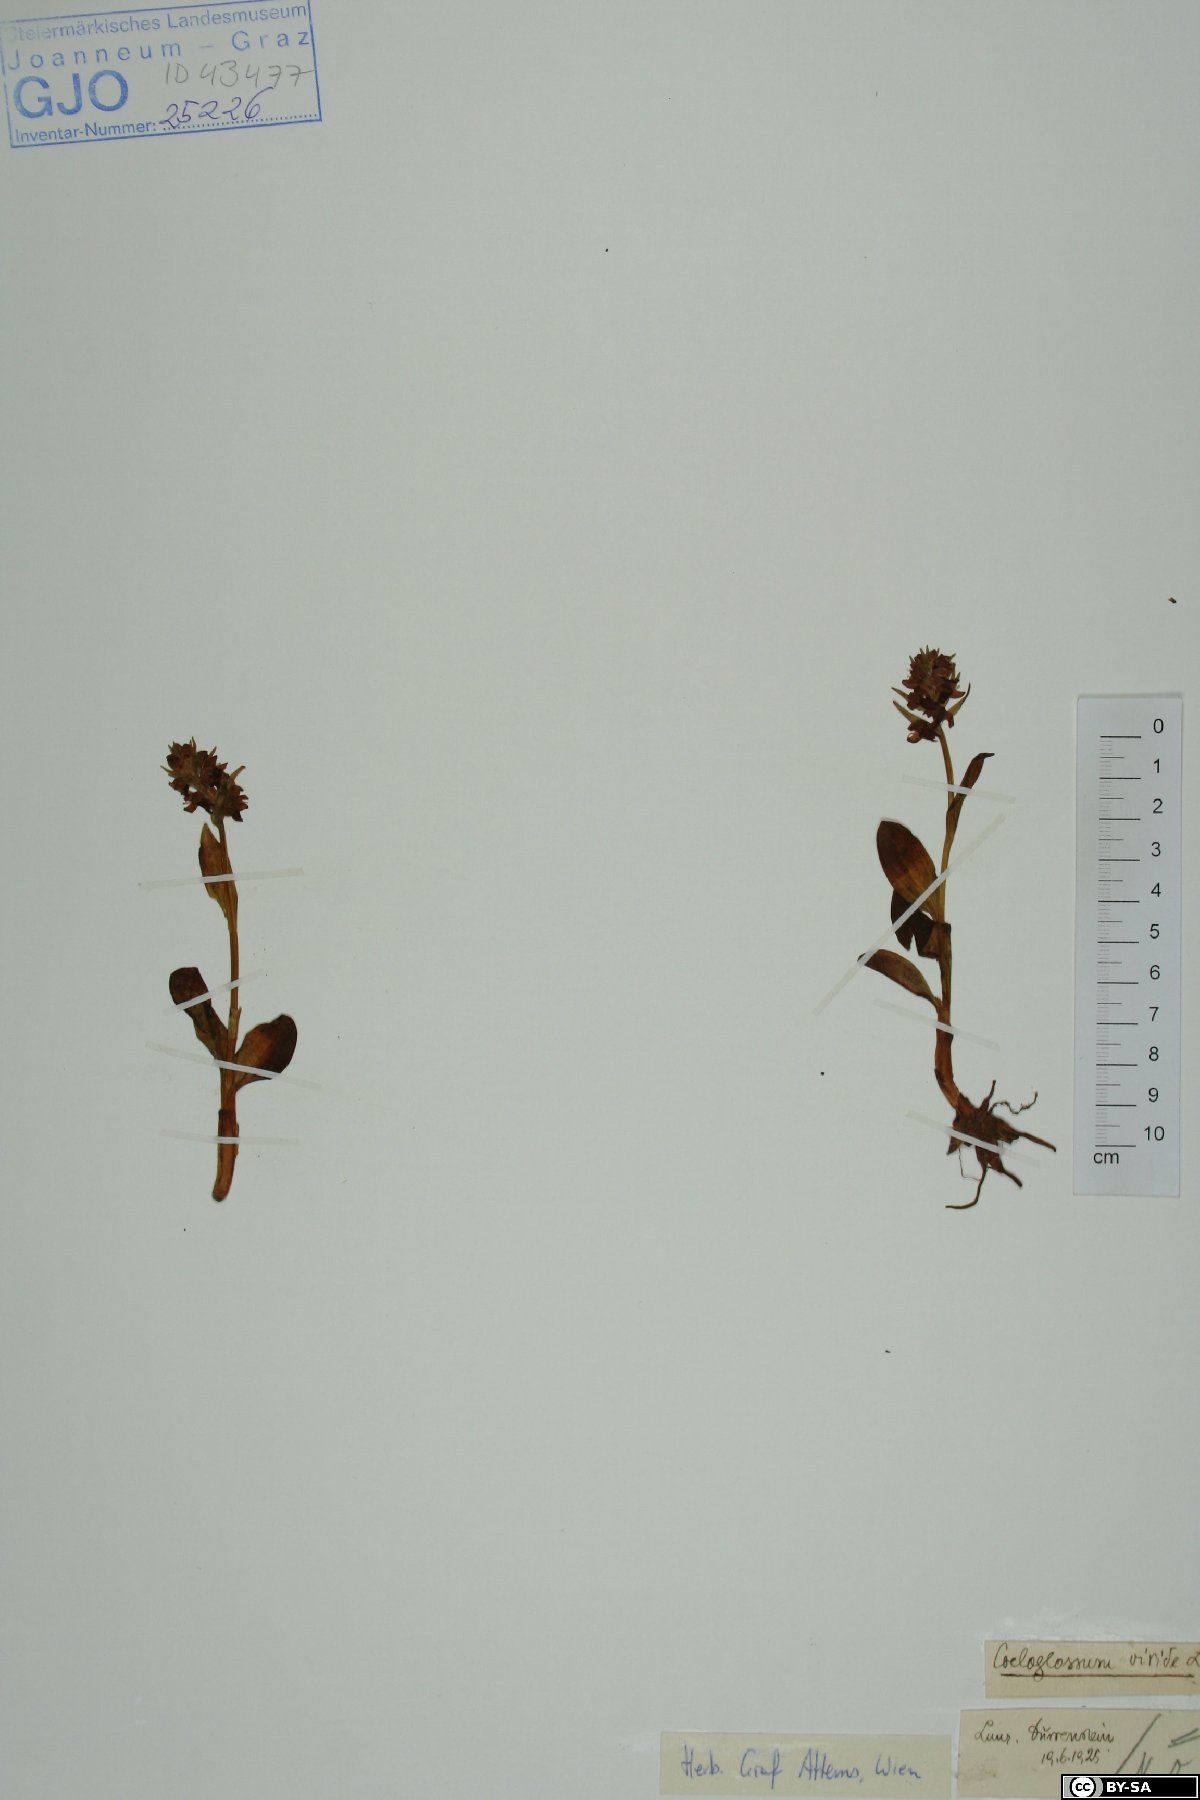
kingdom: Plantae
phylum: Tracheophyta
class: Liliopsida
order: Asparagales
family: Orchidaceae
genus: Dactylorhiza
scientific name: Dactylorhiza viridis
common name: Longbract frog orchid
